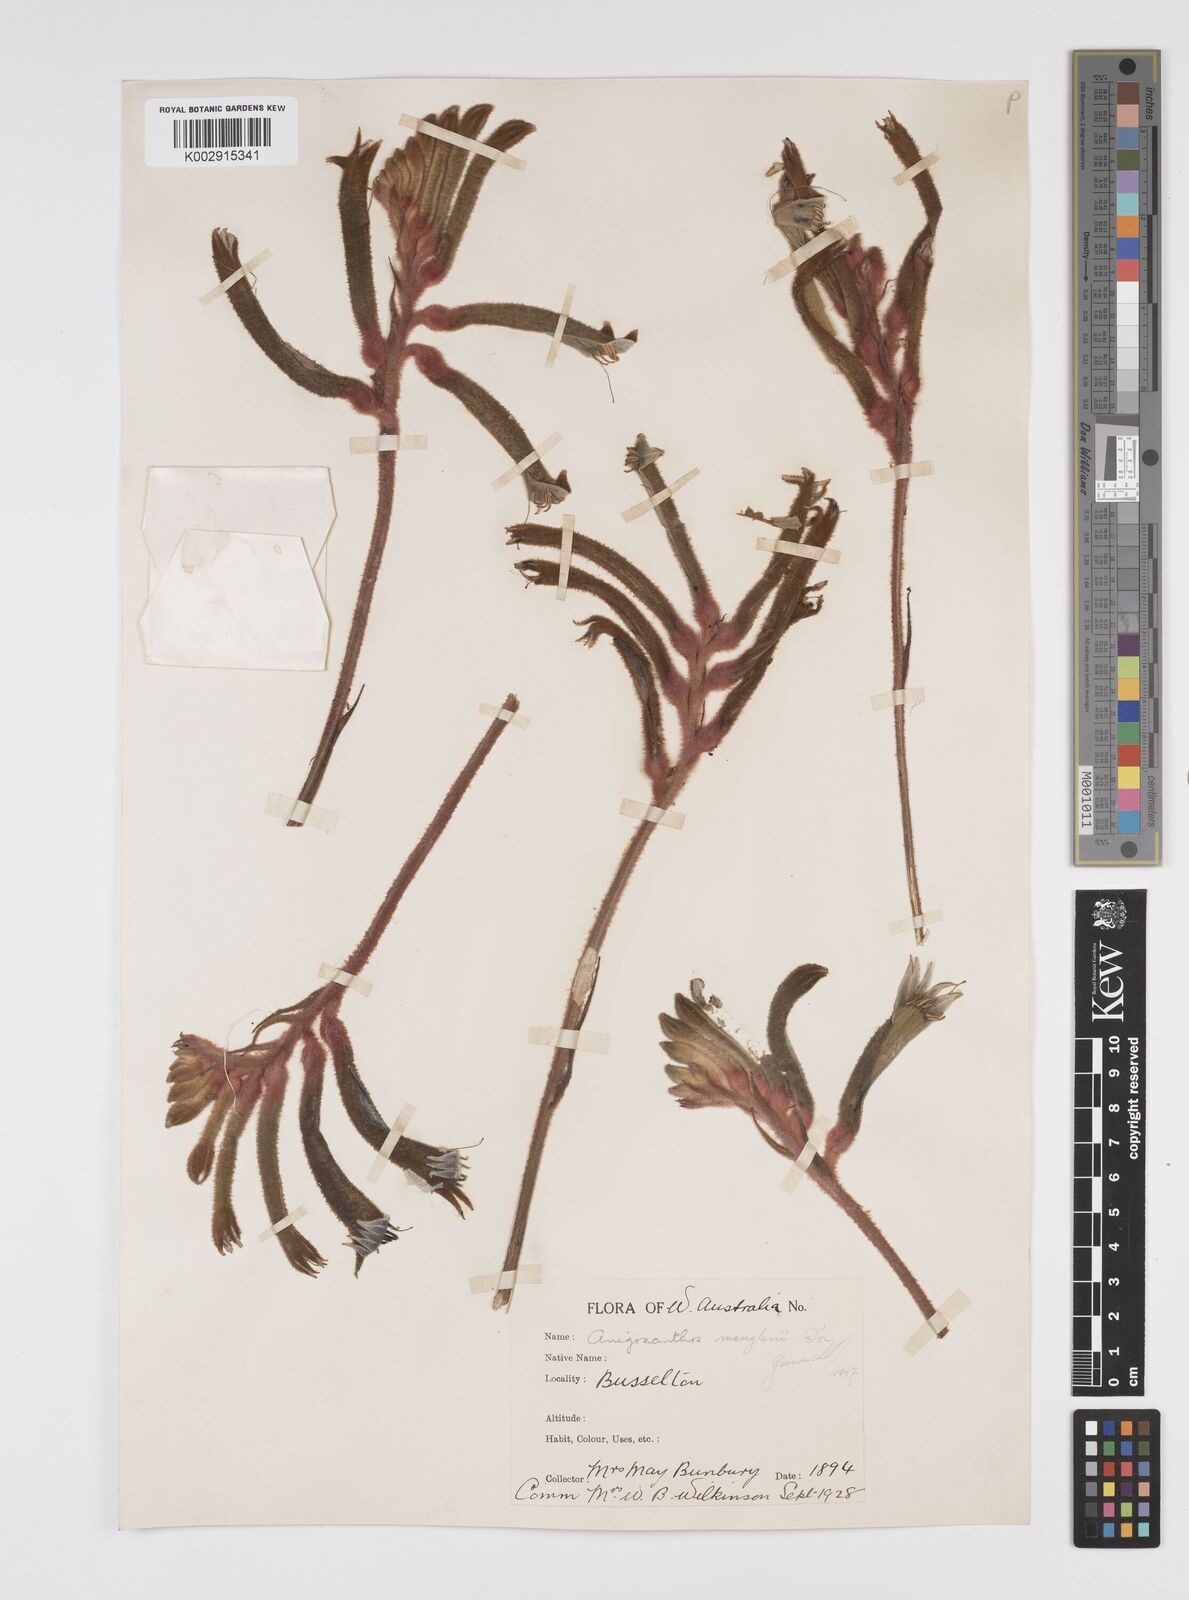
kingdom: Plantae
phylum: Tracheophyta
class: Liliopsida
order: Commelinales
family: Haemodoraceae
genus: Anigozanthos
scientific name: Anigozanthos manglesii
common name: Mangles's kangaroo-paw
